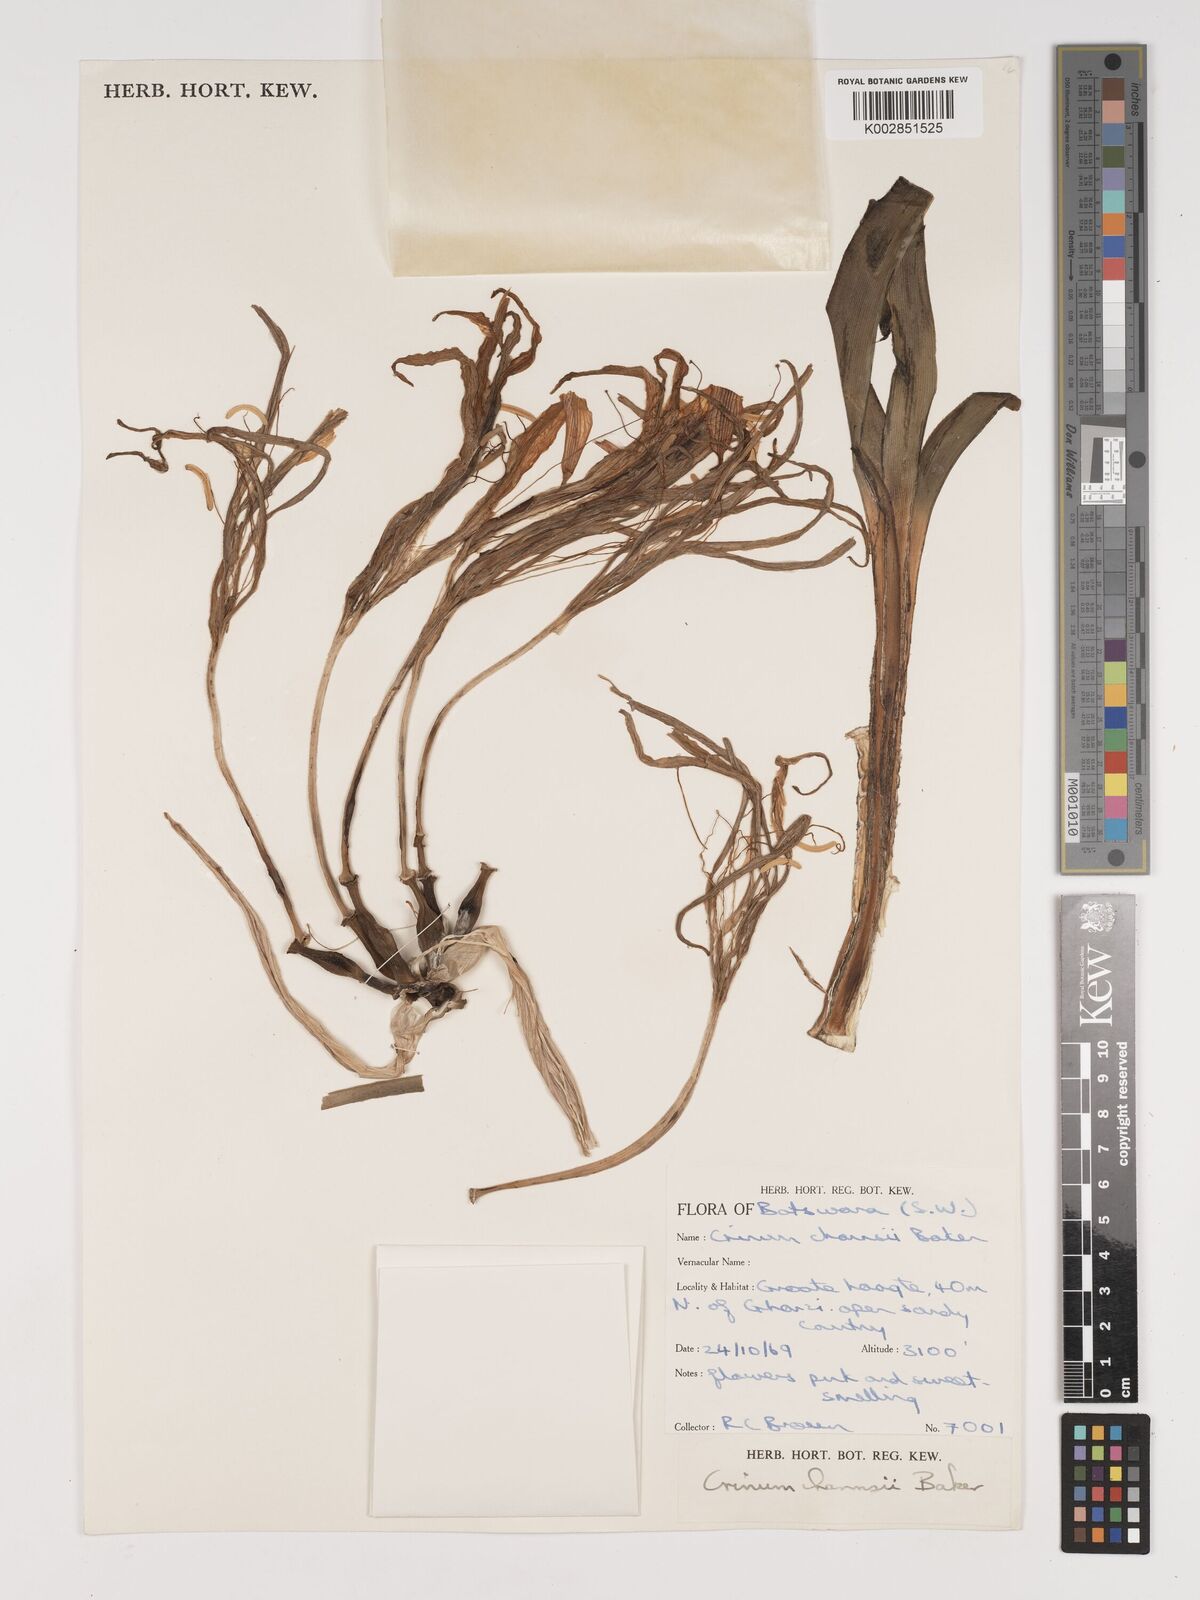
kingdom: Plantae
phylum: Tracheophyta
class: Liliopsida
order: Asparagales
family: Amaryllidaceae
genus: Crinum
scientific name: Crinum crassicaule
